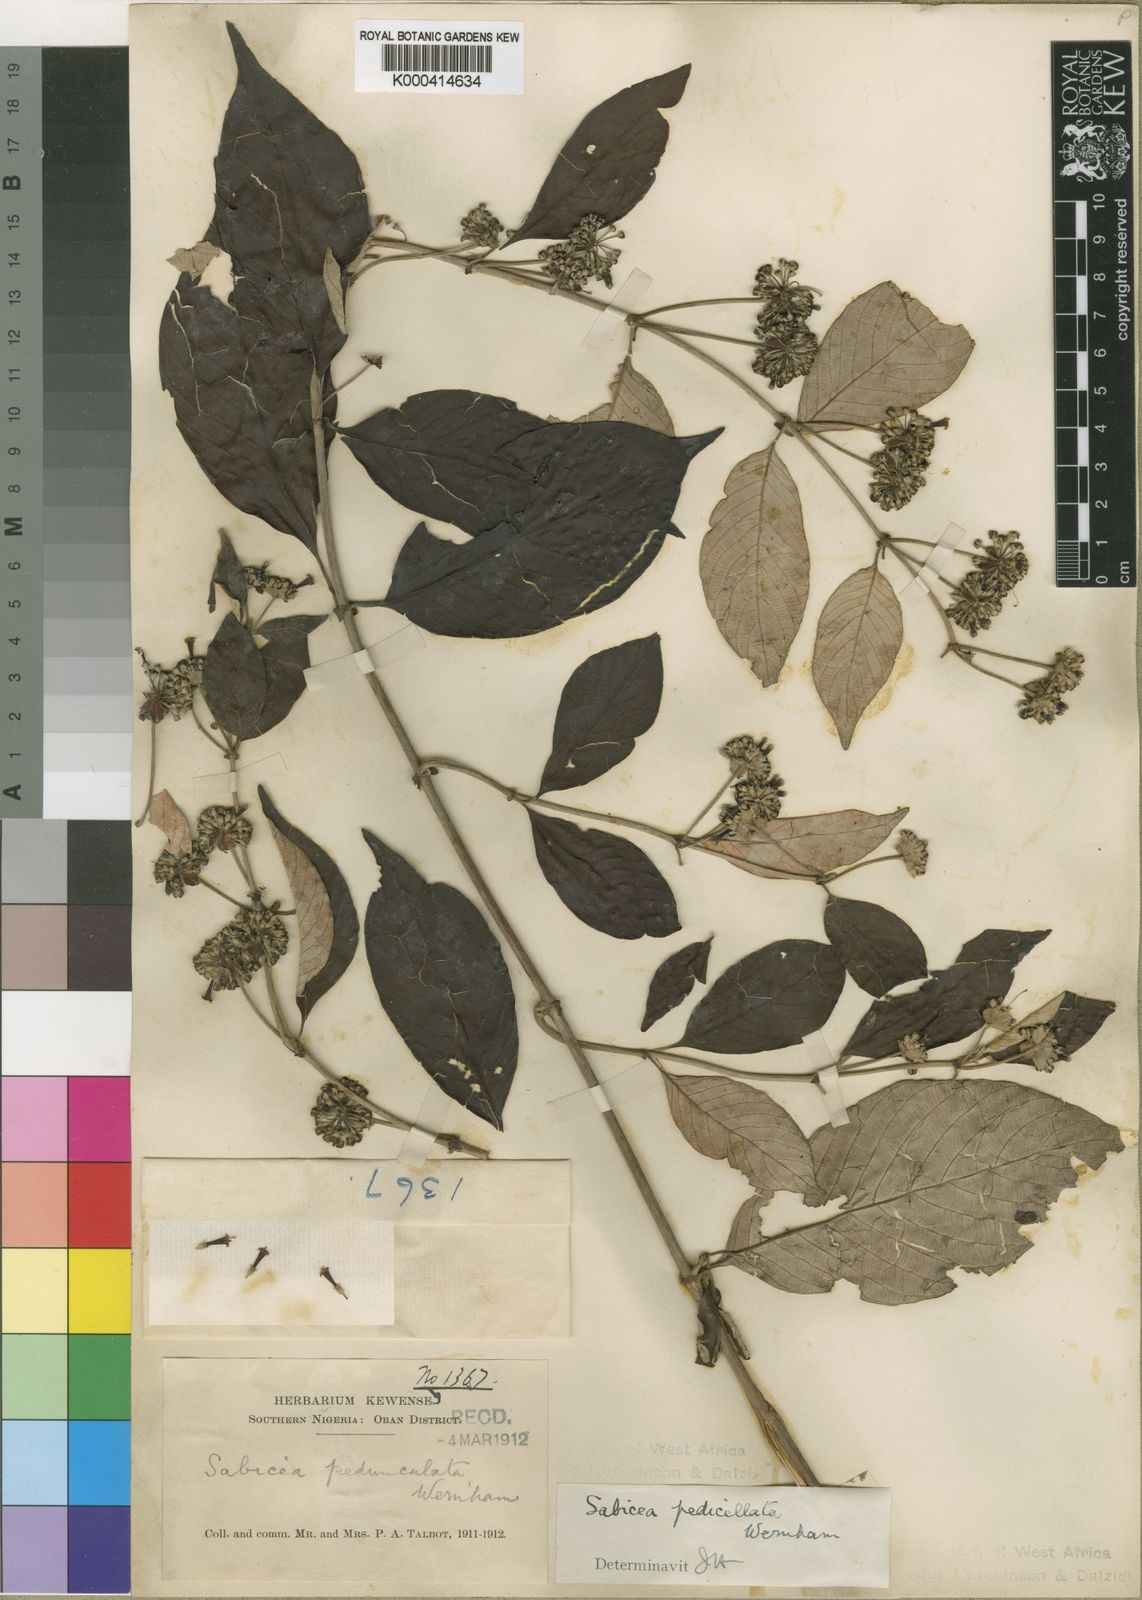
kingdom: Plantae
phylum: Tracheophyta
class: Magnoliopsida
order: Gentianales
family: Rubiaceae
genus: Sabicea
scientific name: Sabicea
